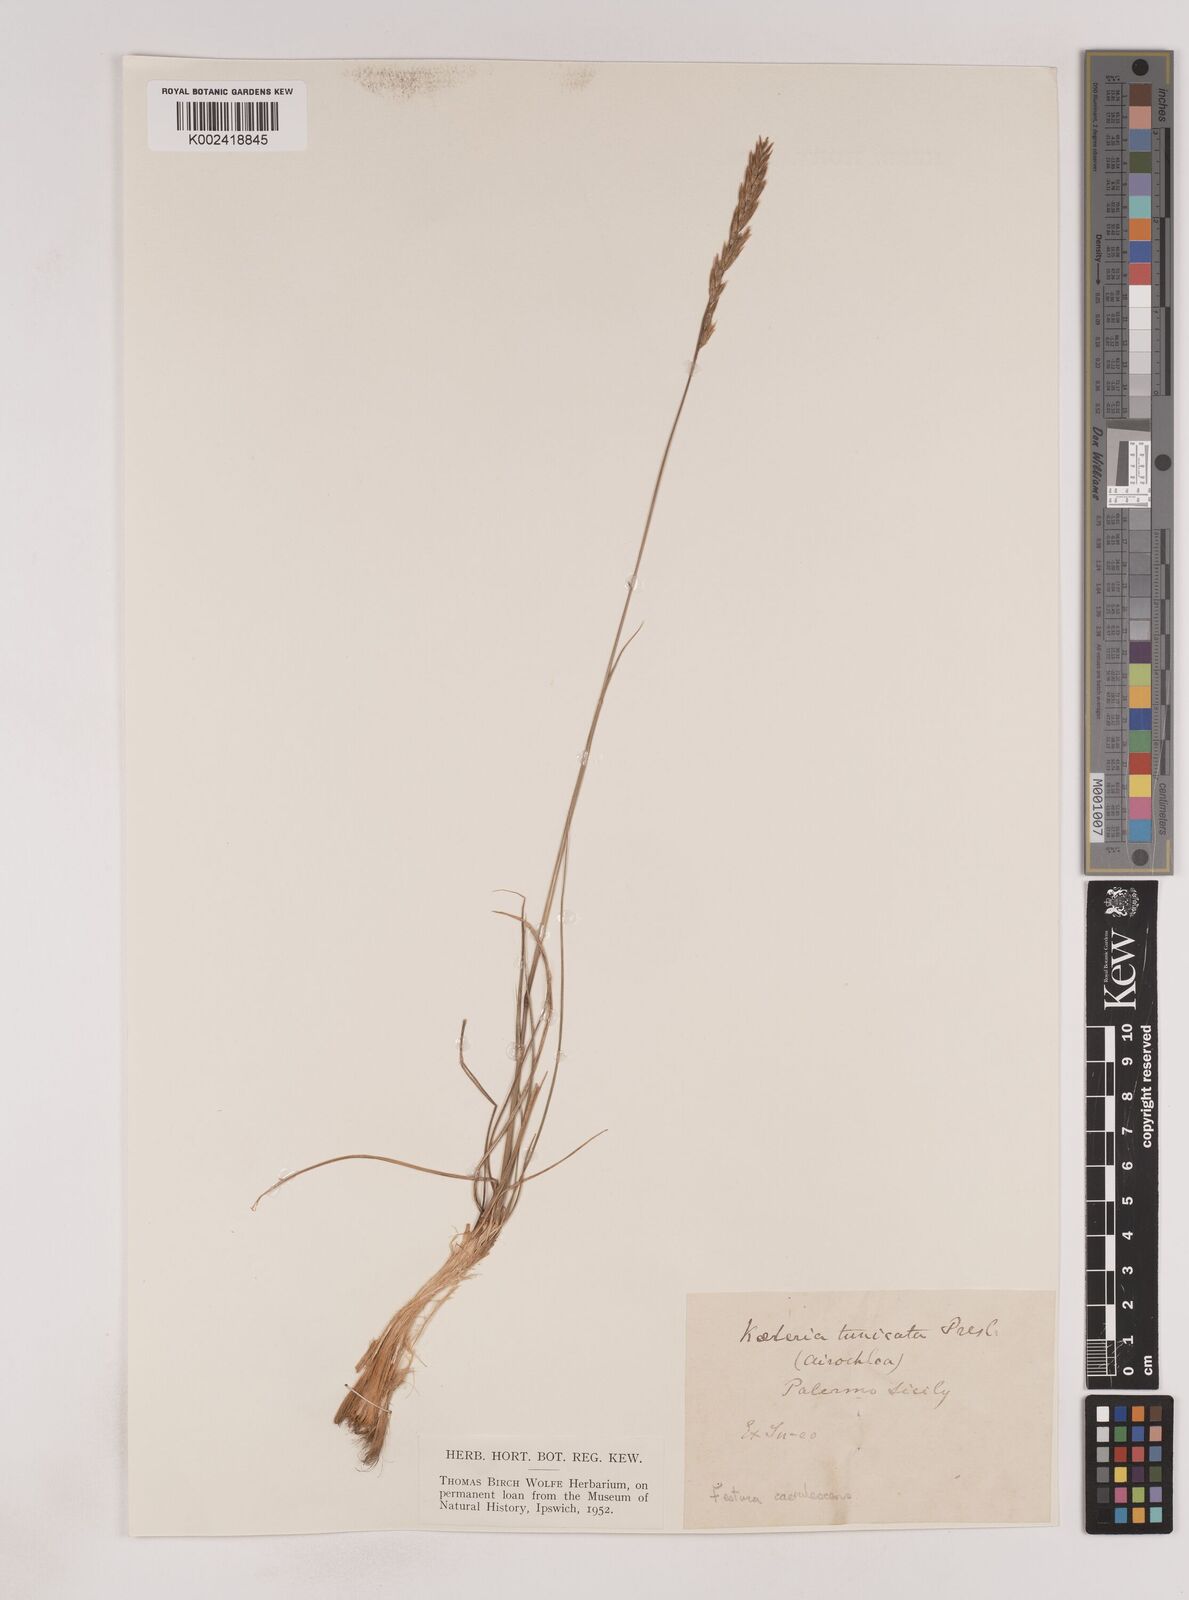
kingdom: Plantae
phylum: Tracheophyta
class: Liliopsida
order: Poales
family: Poaceae
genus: Patzkea
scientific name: Patzkea paniculata
